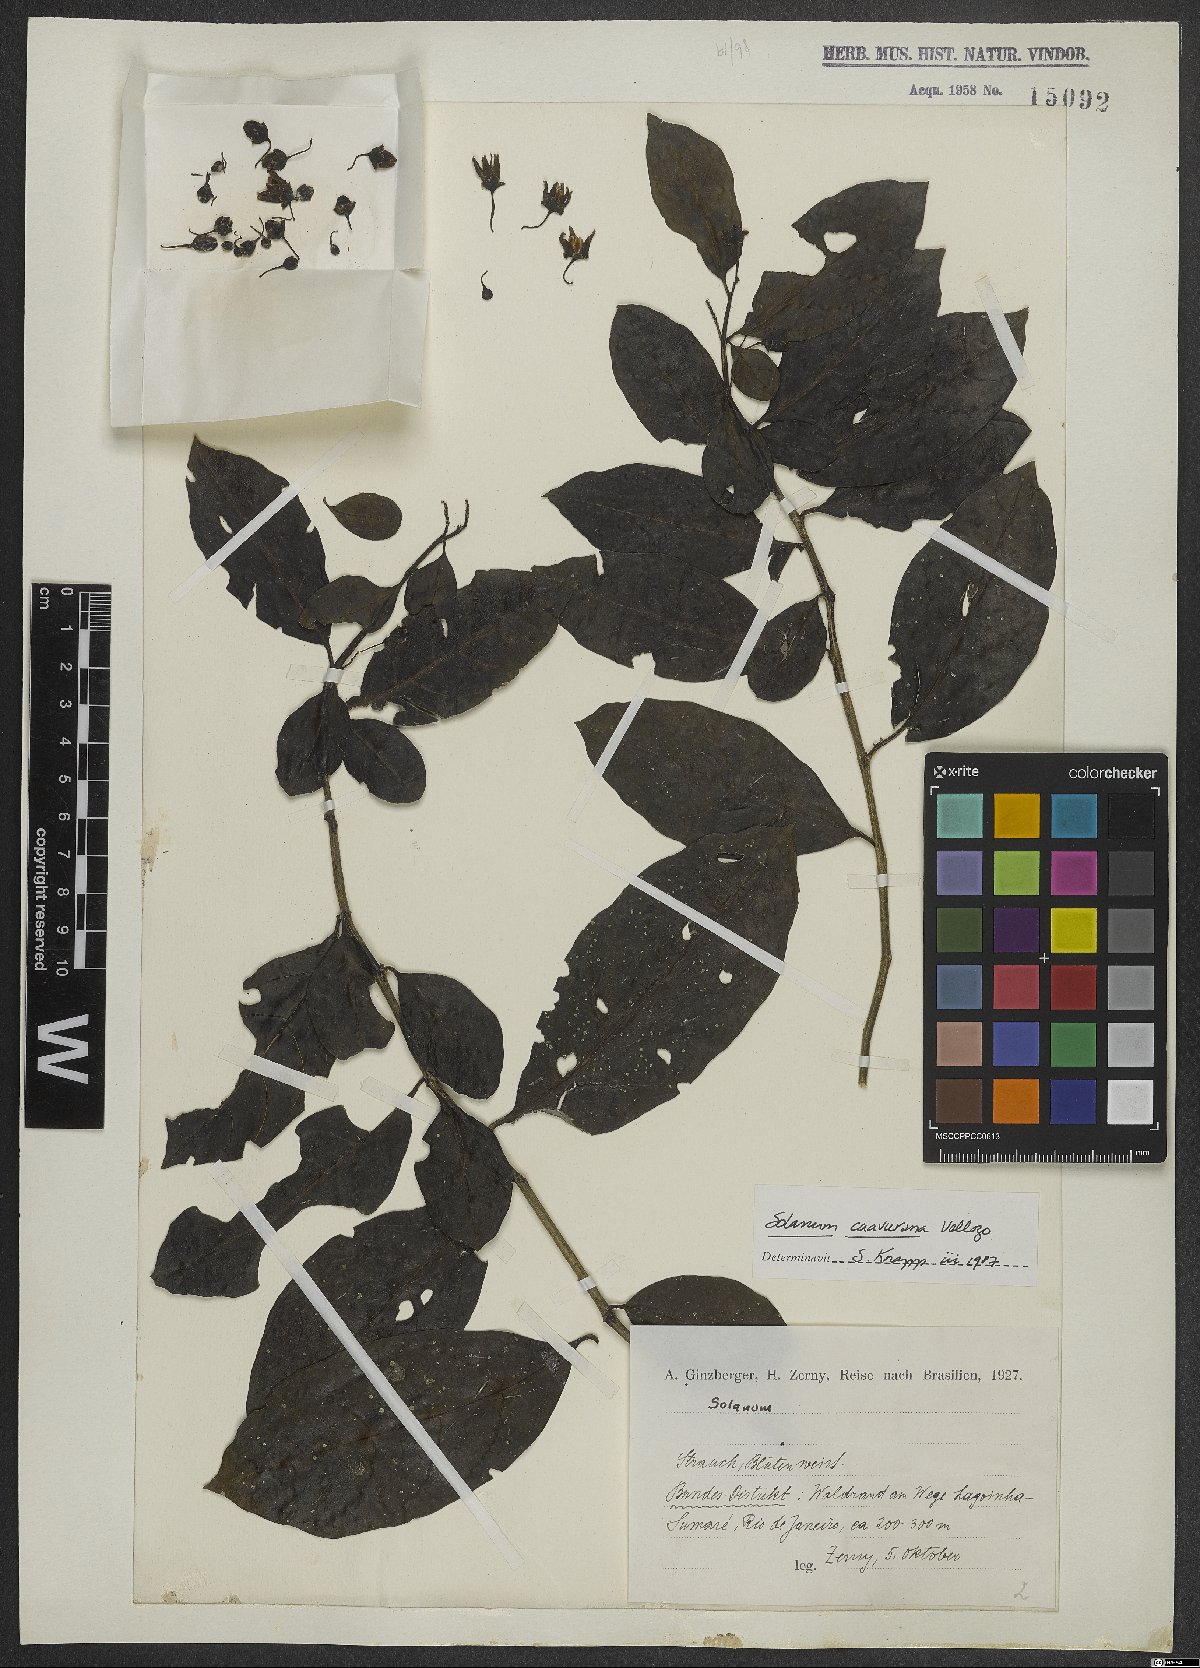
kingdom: Plantae
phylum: Tracheophyta
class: Magnoliopsida
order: Solanales
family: Solanaceae
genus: Solanum
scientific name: Solanum caavurana
